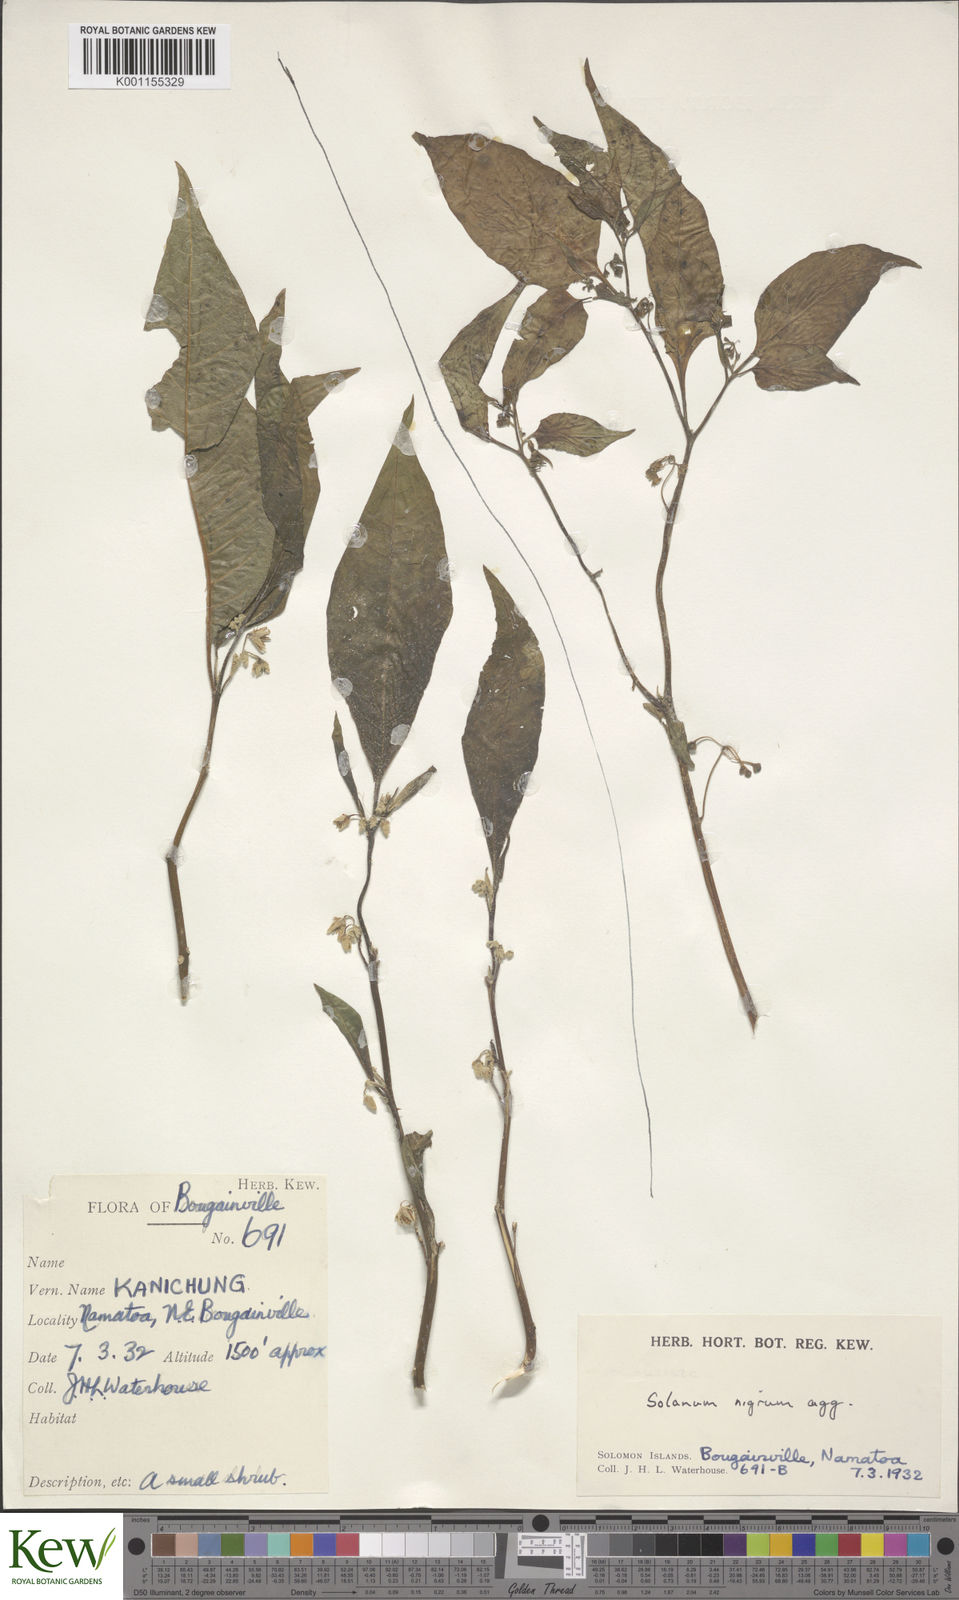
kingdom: Plantae
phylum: Tracheophyta
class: Magnoliopsida
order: Solanales
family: Solanaceae
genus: Solanum
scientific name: Solanum peekelii
